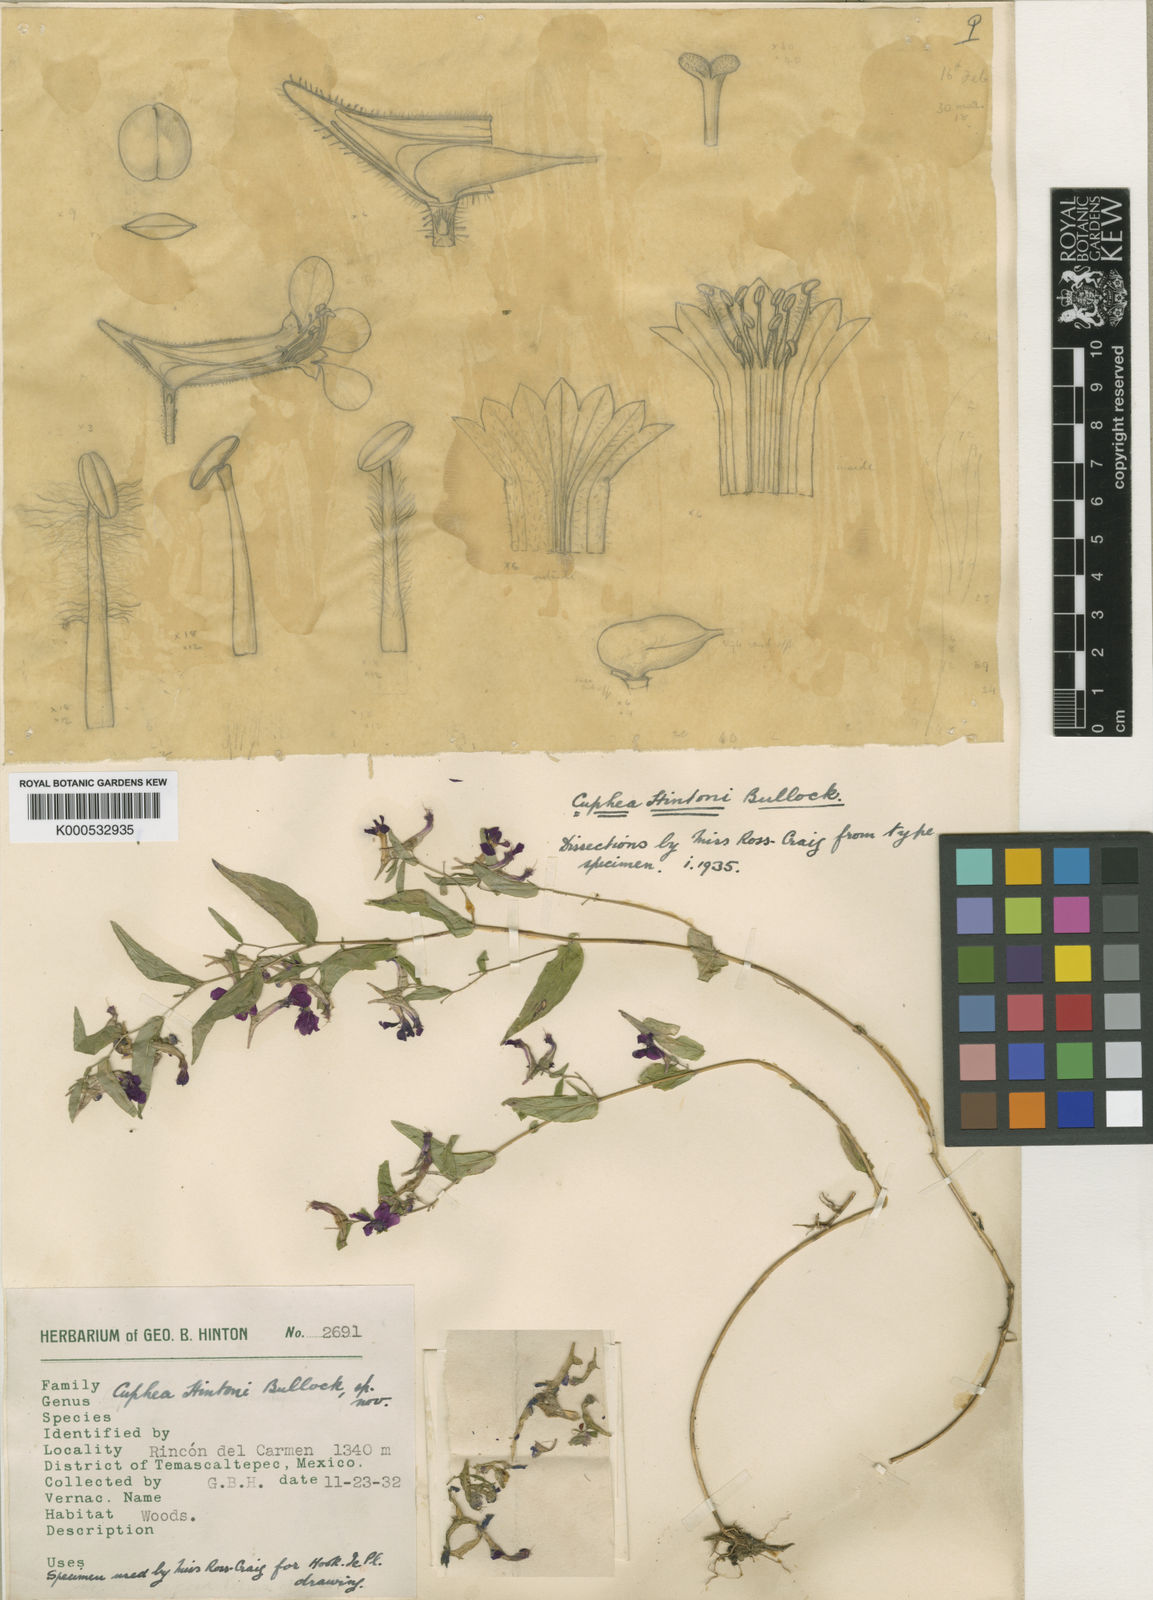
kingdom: Plantae
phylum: Tracheophyta
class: Magnoliopsida
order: Myrtales
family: Lythraceae
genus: Cuphea
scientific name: Cuphea avigera
